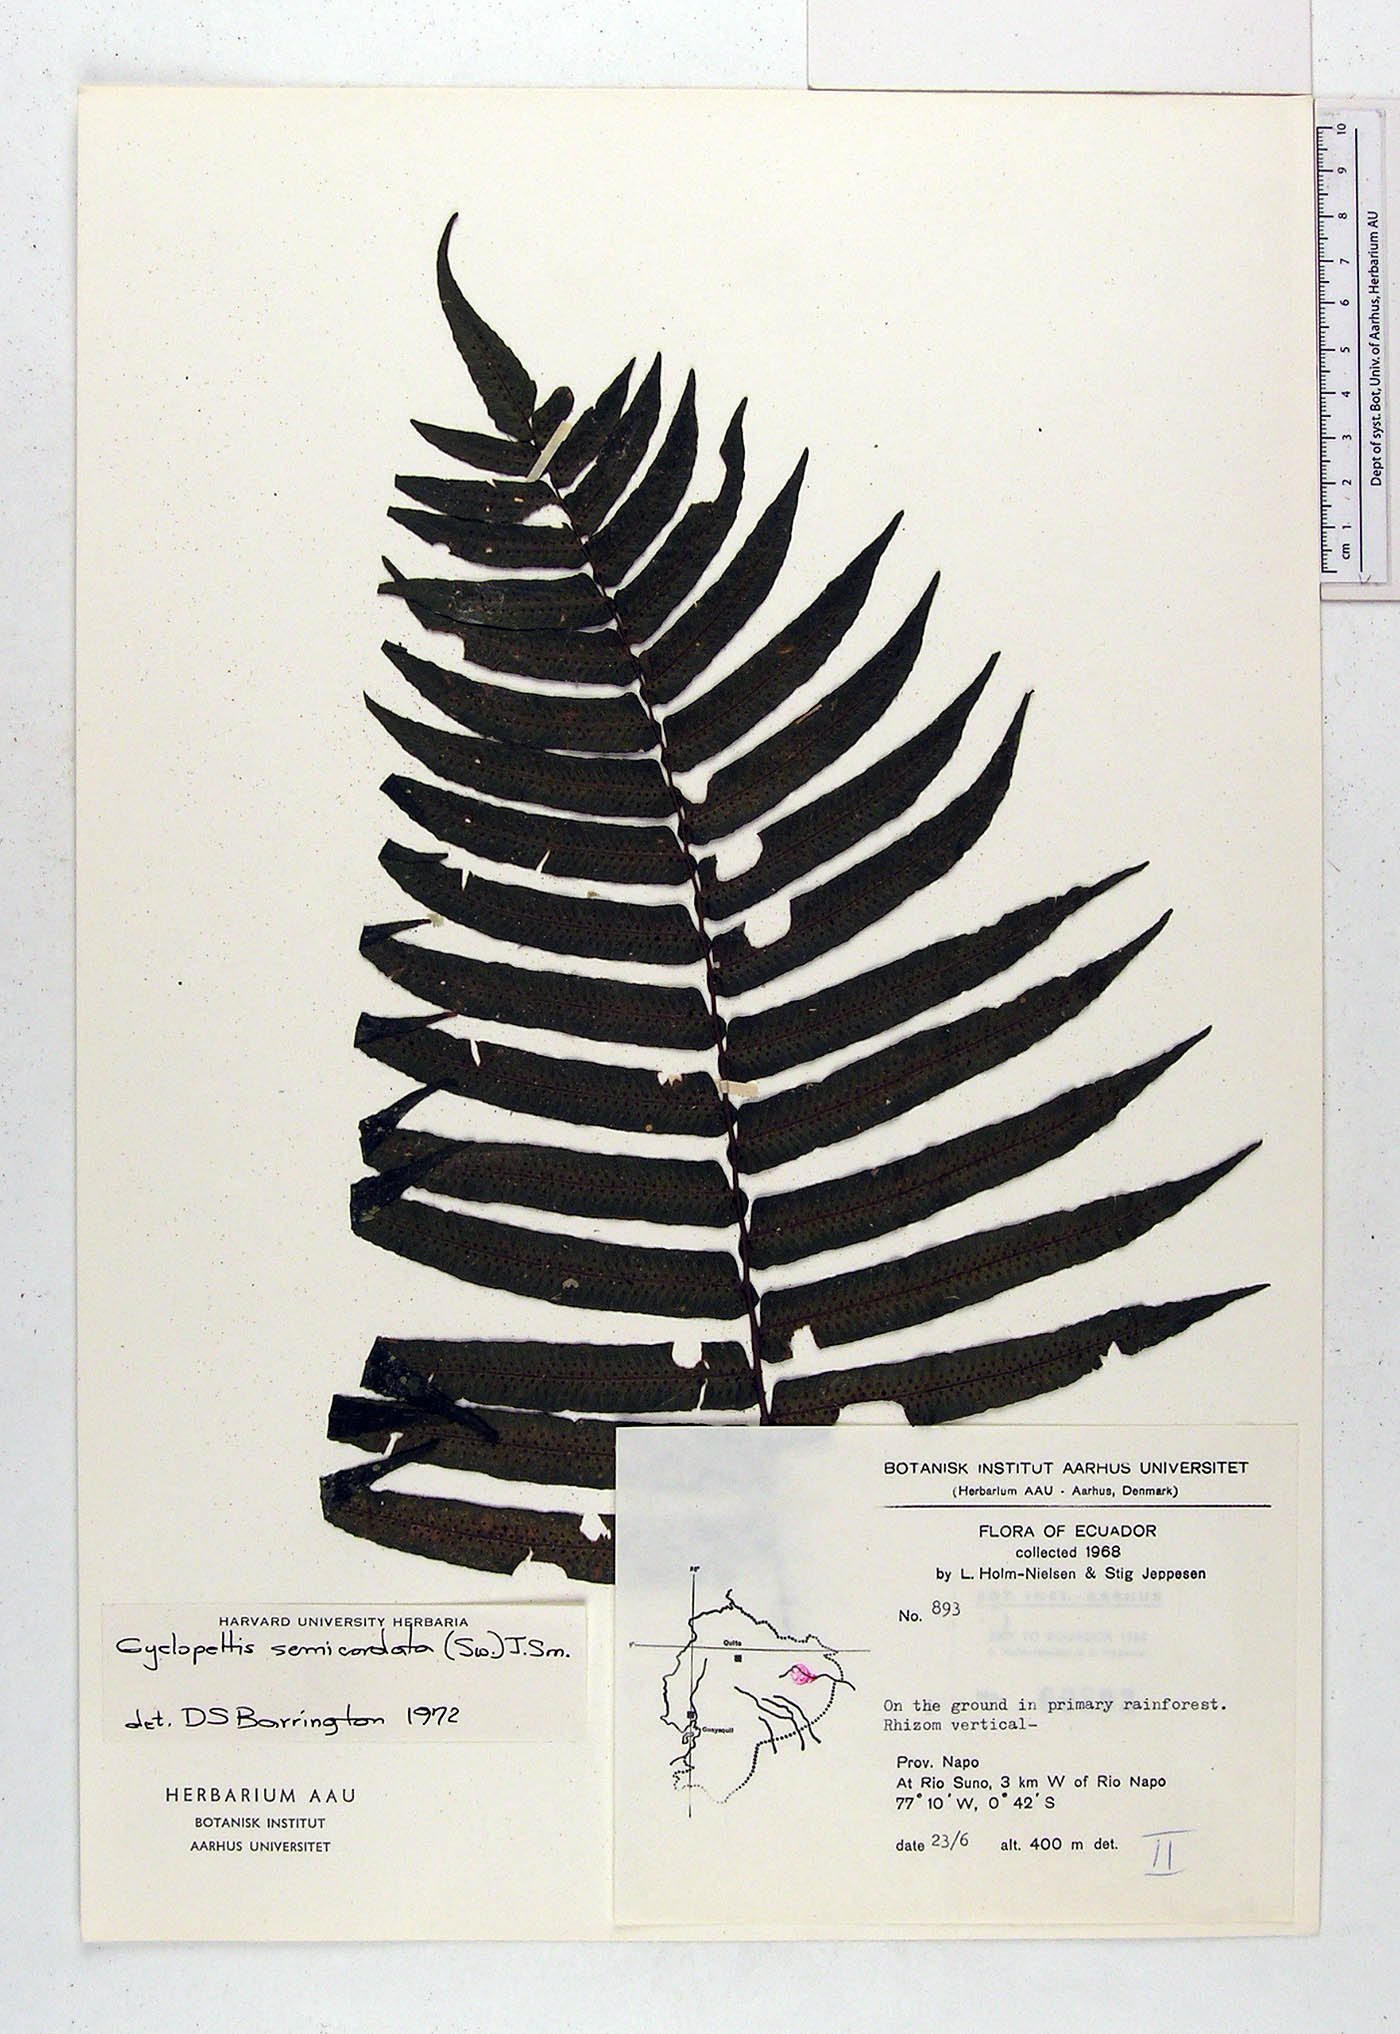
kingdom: Plantae
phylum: Tracheophyta
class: Polypodiopsida
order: Polypodiales
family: Lomariopsidaceae
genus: Cyclopeltis
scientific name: Cyclopeltis semicordata
